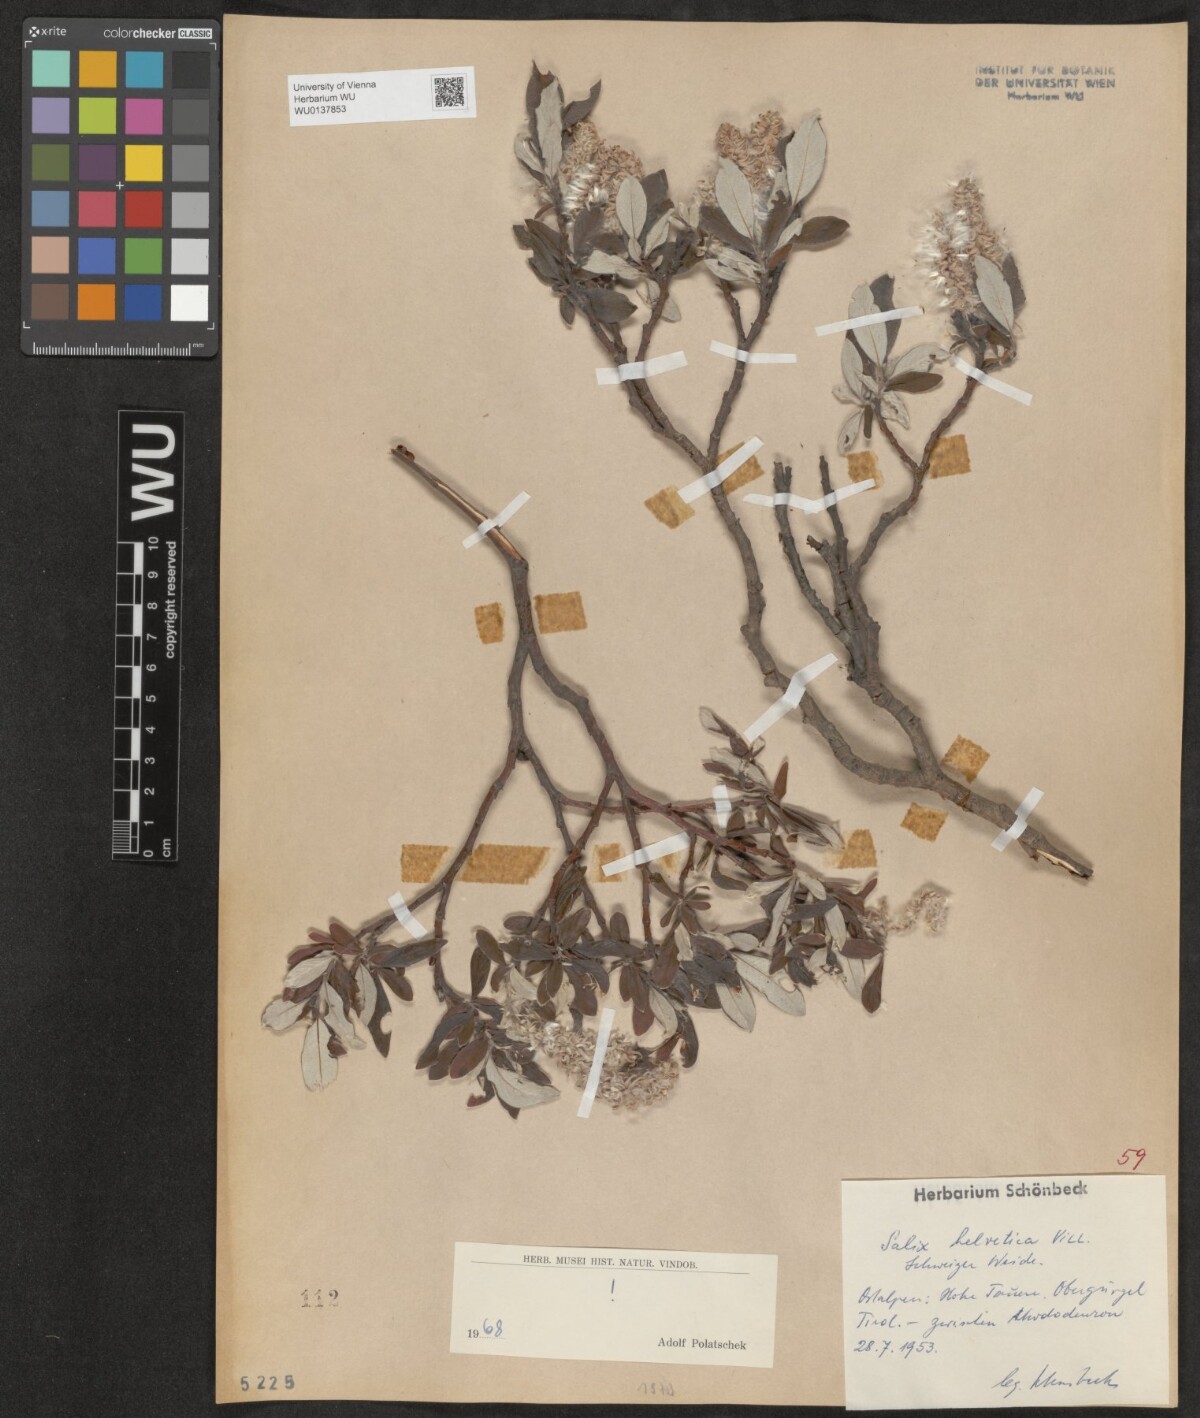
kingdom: Plantae
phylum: Tracheophyta
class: Magnoliopsida
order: Malpighiales
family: Salicaceae
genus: Salix
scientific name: Salix helvetica
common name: Swiss willow
